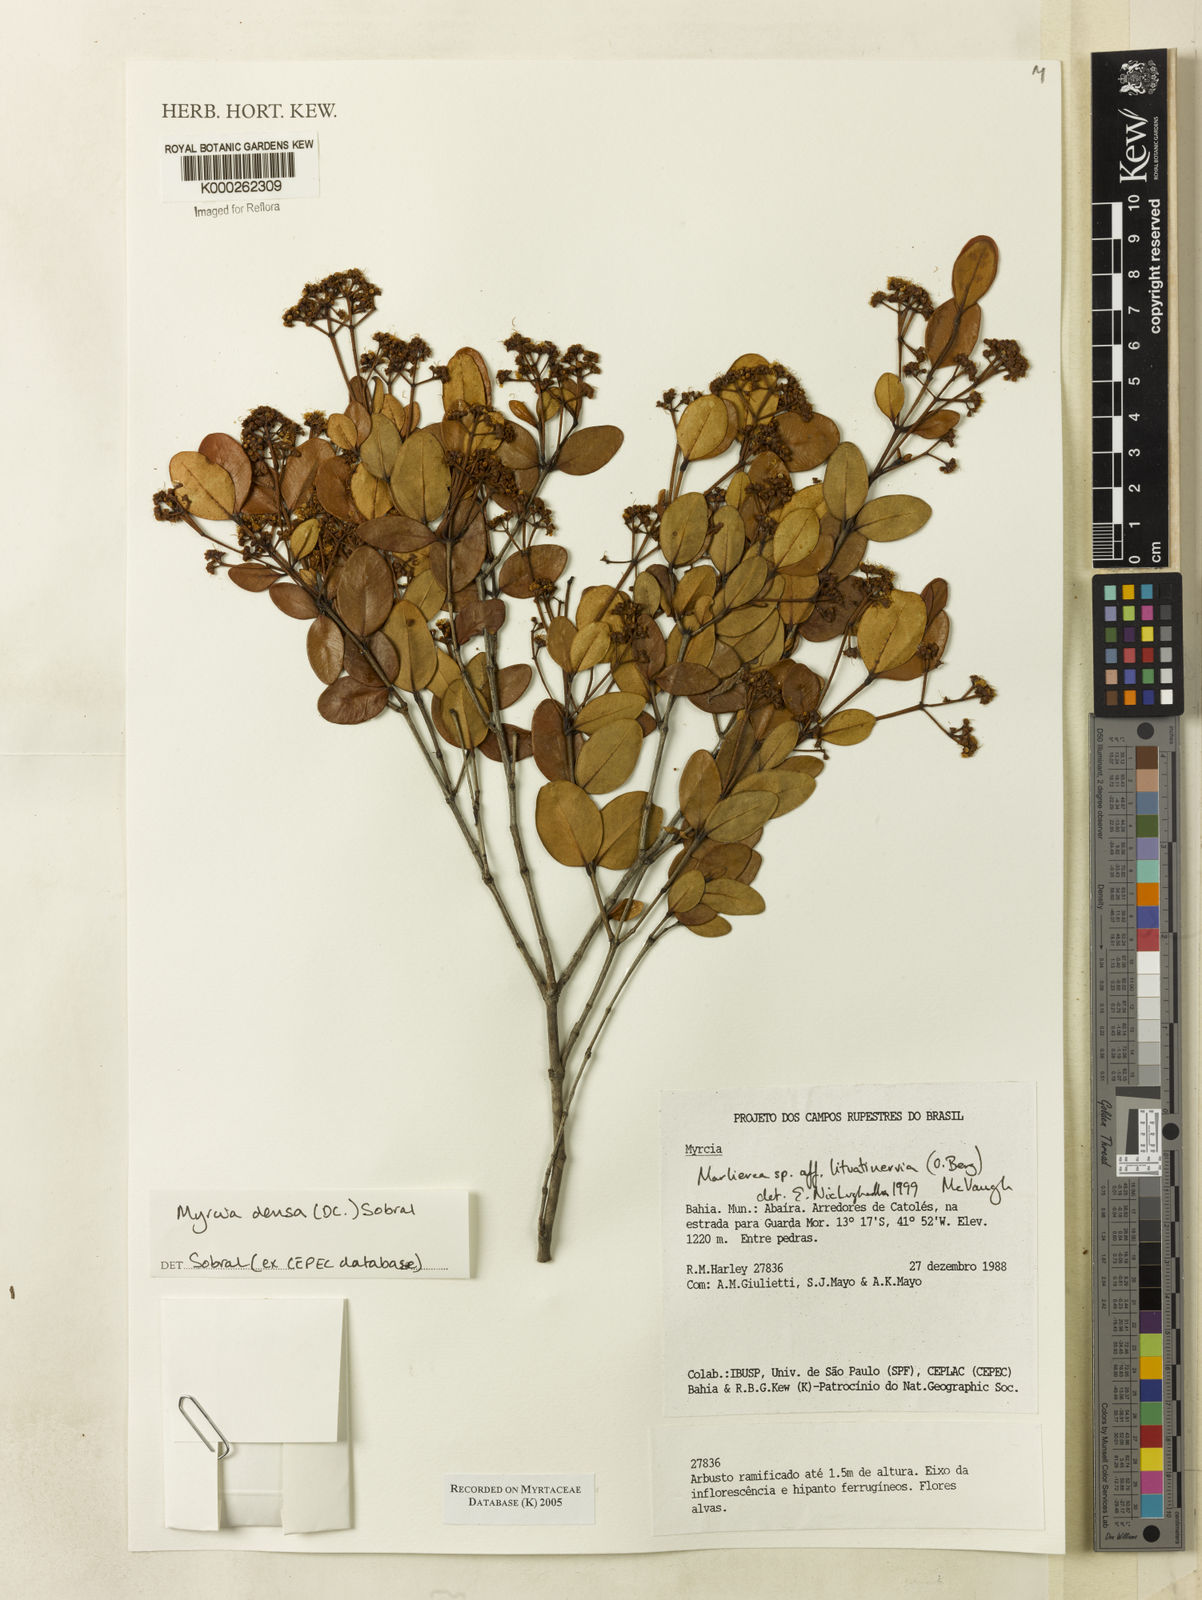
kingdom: Plantae
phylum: Tracheophyta
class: Magnoliopsida
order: Myrtales
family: Myrtaceae
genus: Myrcia
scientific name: Myrcia lituatinervia
